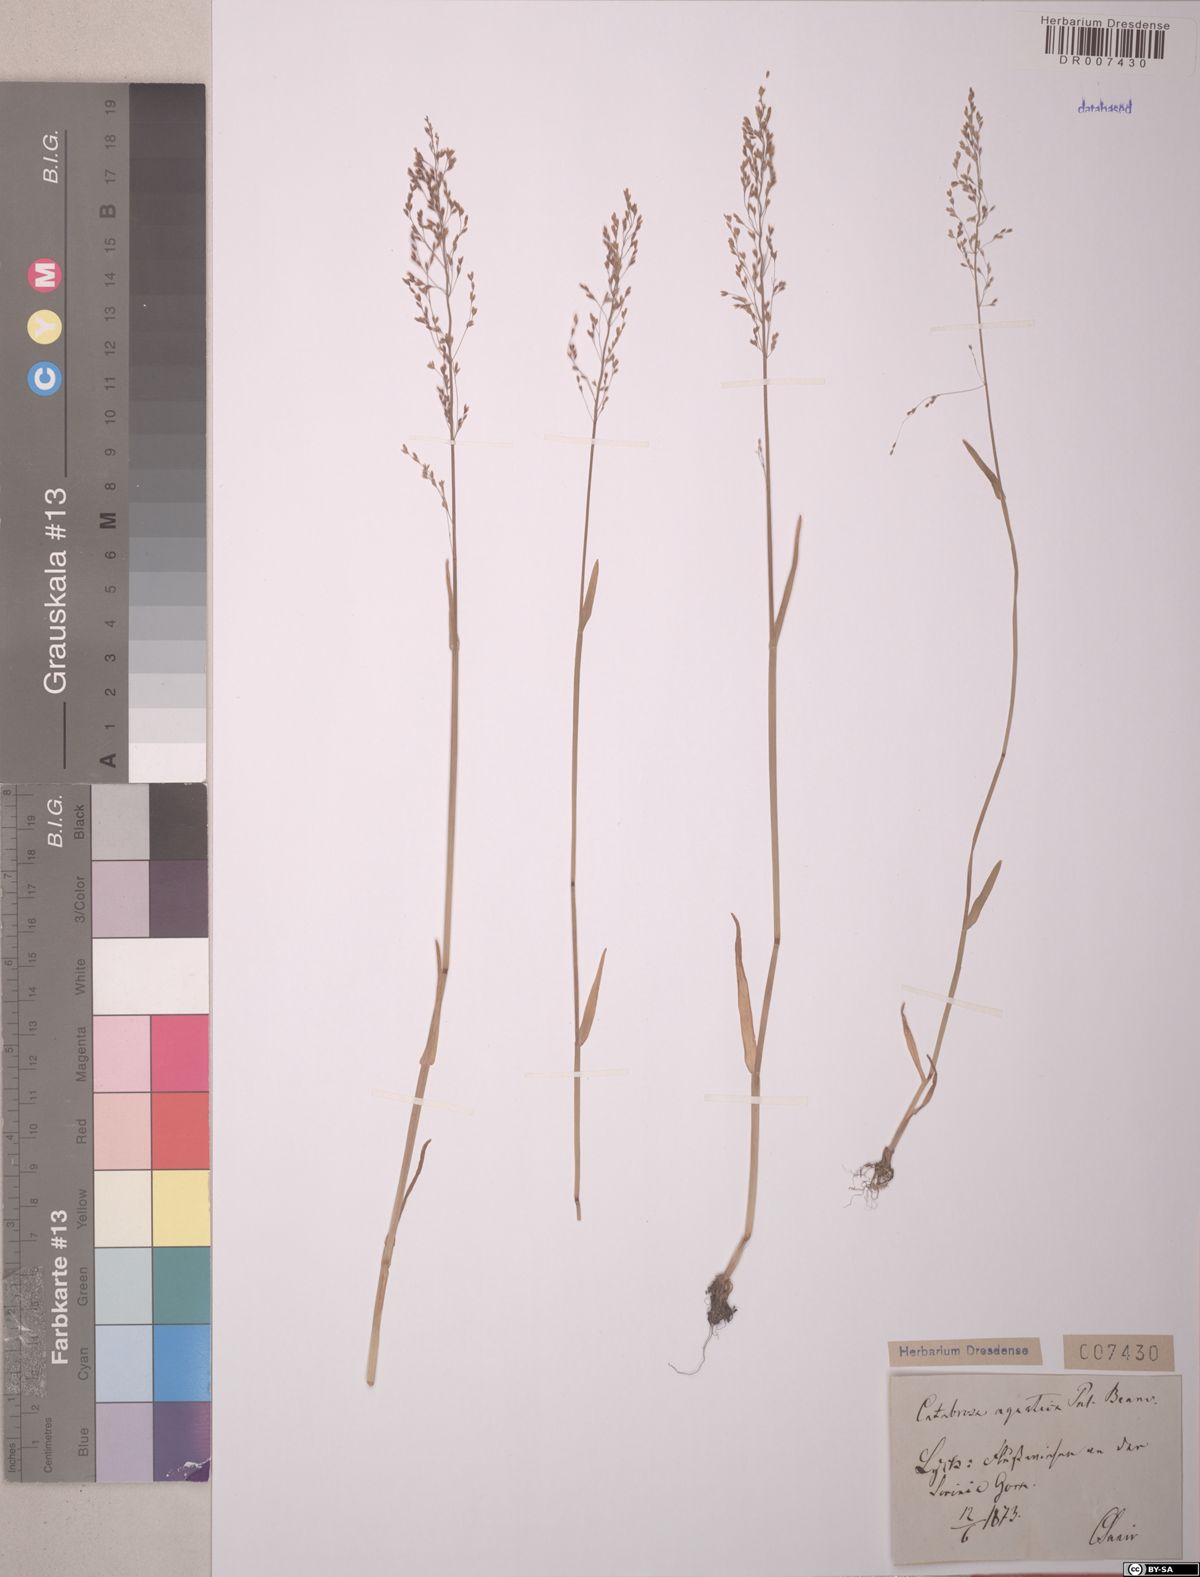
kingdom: Plantae
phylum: Tracheophyta
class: Liliopsida
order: Poales
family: Poaceae
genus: Catabrosa
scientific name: Catabrosa aquatica
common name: Whorl-grass
